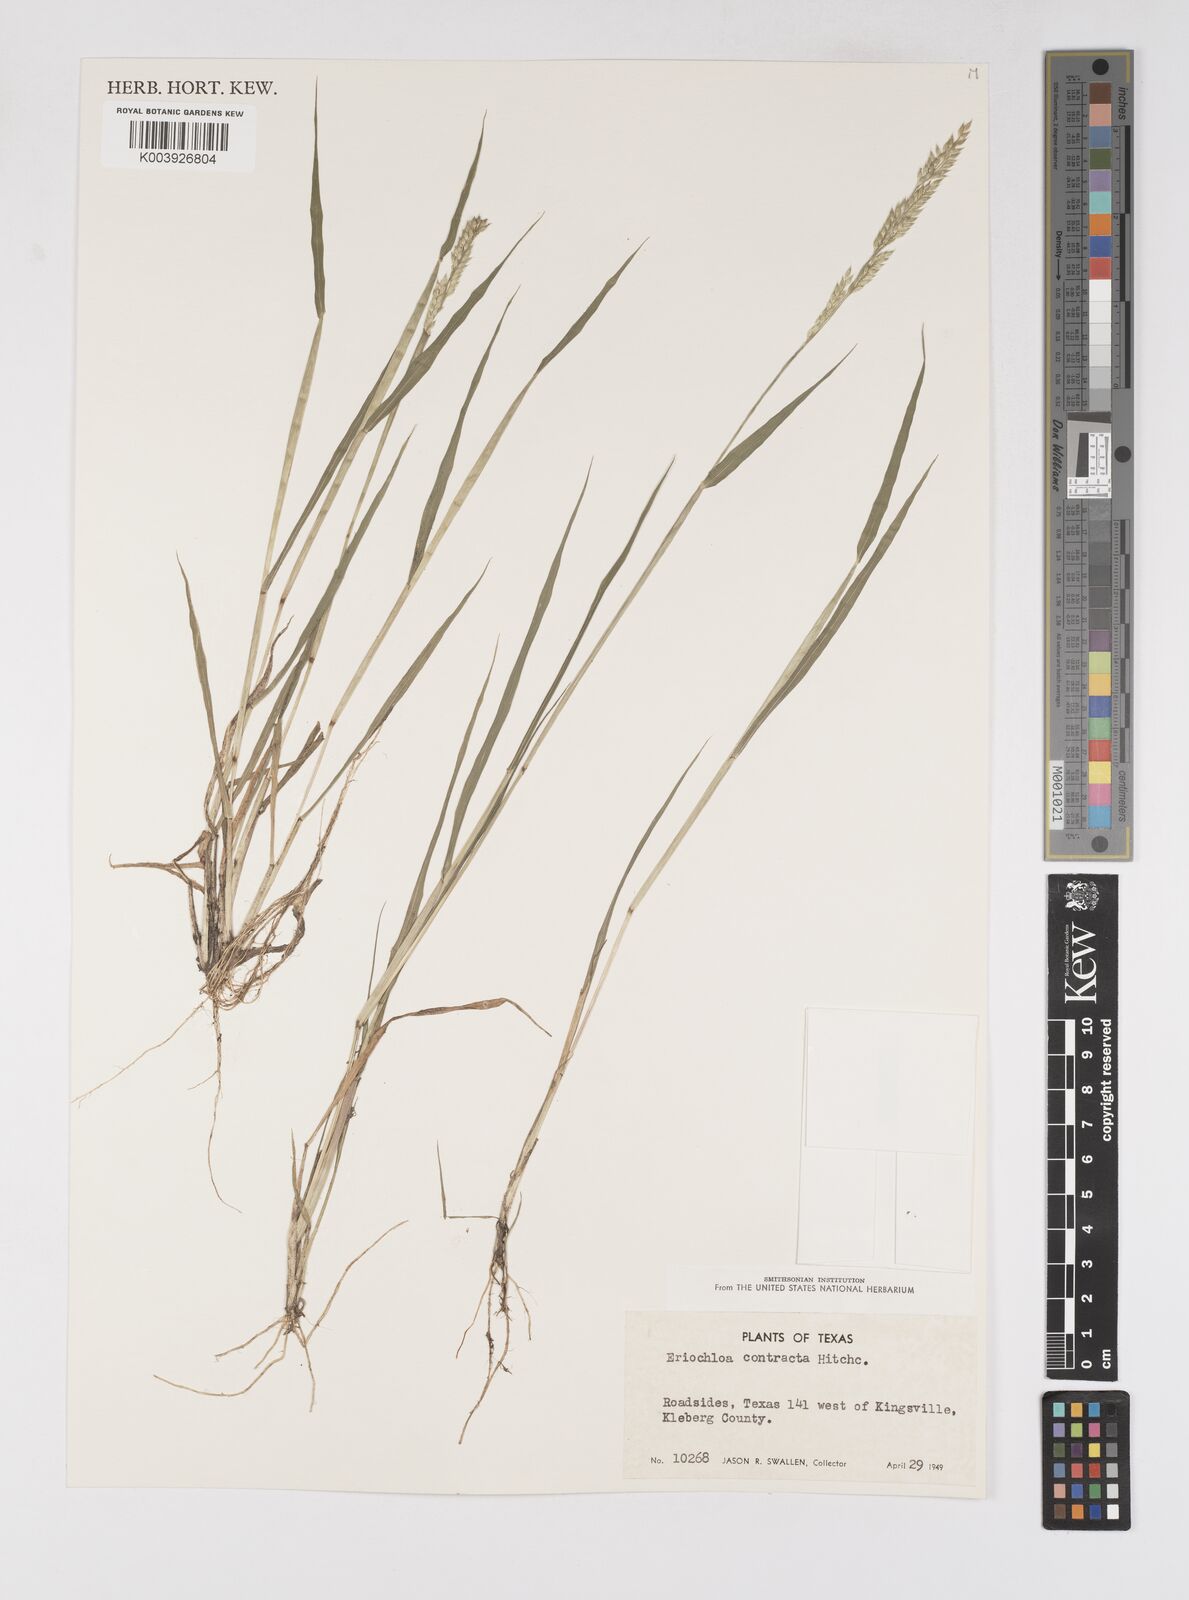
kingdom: Plantae
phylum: Tracheophyta
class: Liliopsida
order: Poales
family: Poaceae
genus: Eriochloa
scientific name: Eriochloa contracta
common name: Prairie cup grass
